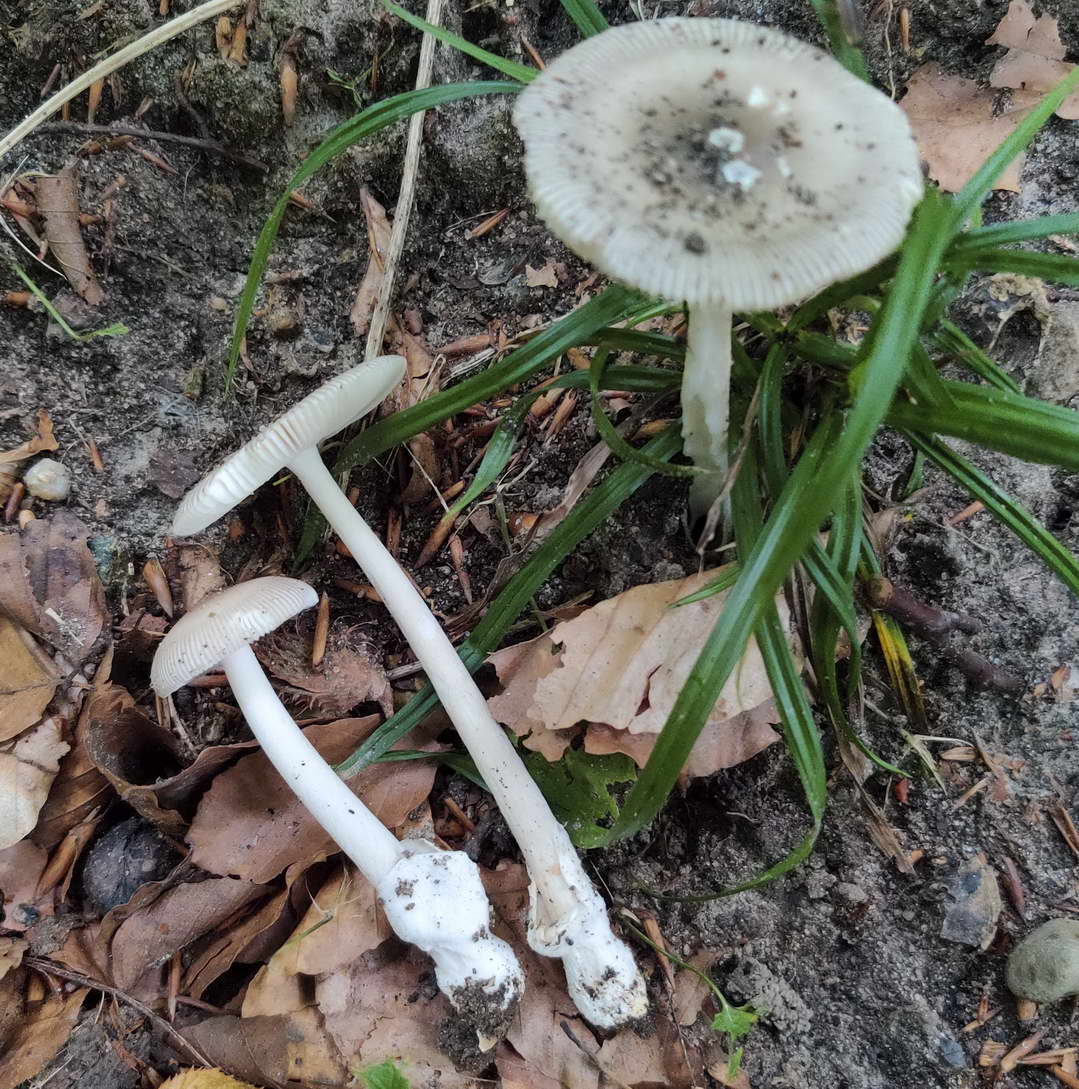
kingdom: Fungi
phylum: Basidiomycota
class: Agaricomycetes
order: Agaricales
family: Amanitaceae
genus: Amanita
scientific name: Amanita vaginata
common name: grå kam-fluesvamp
